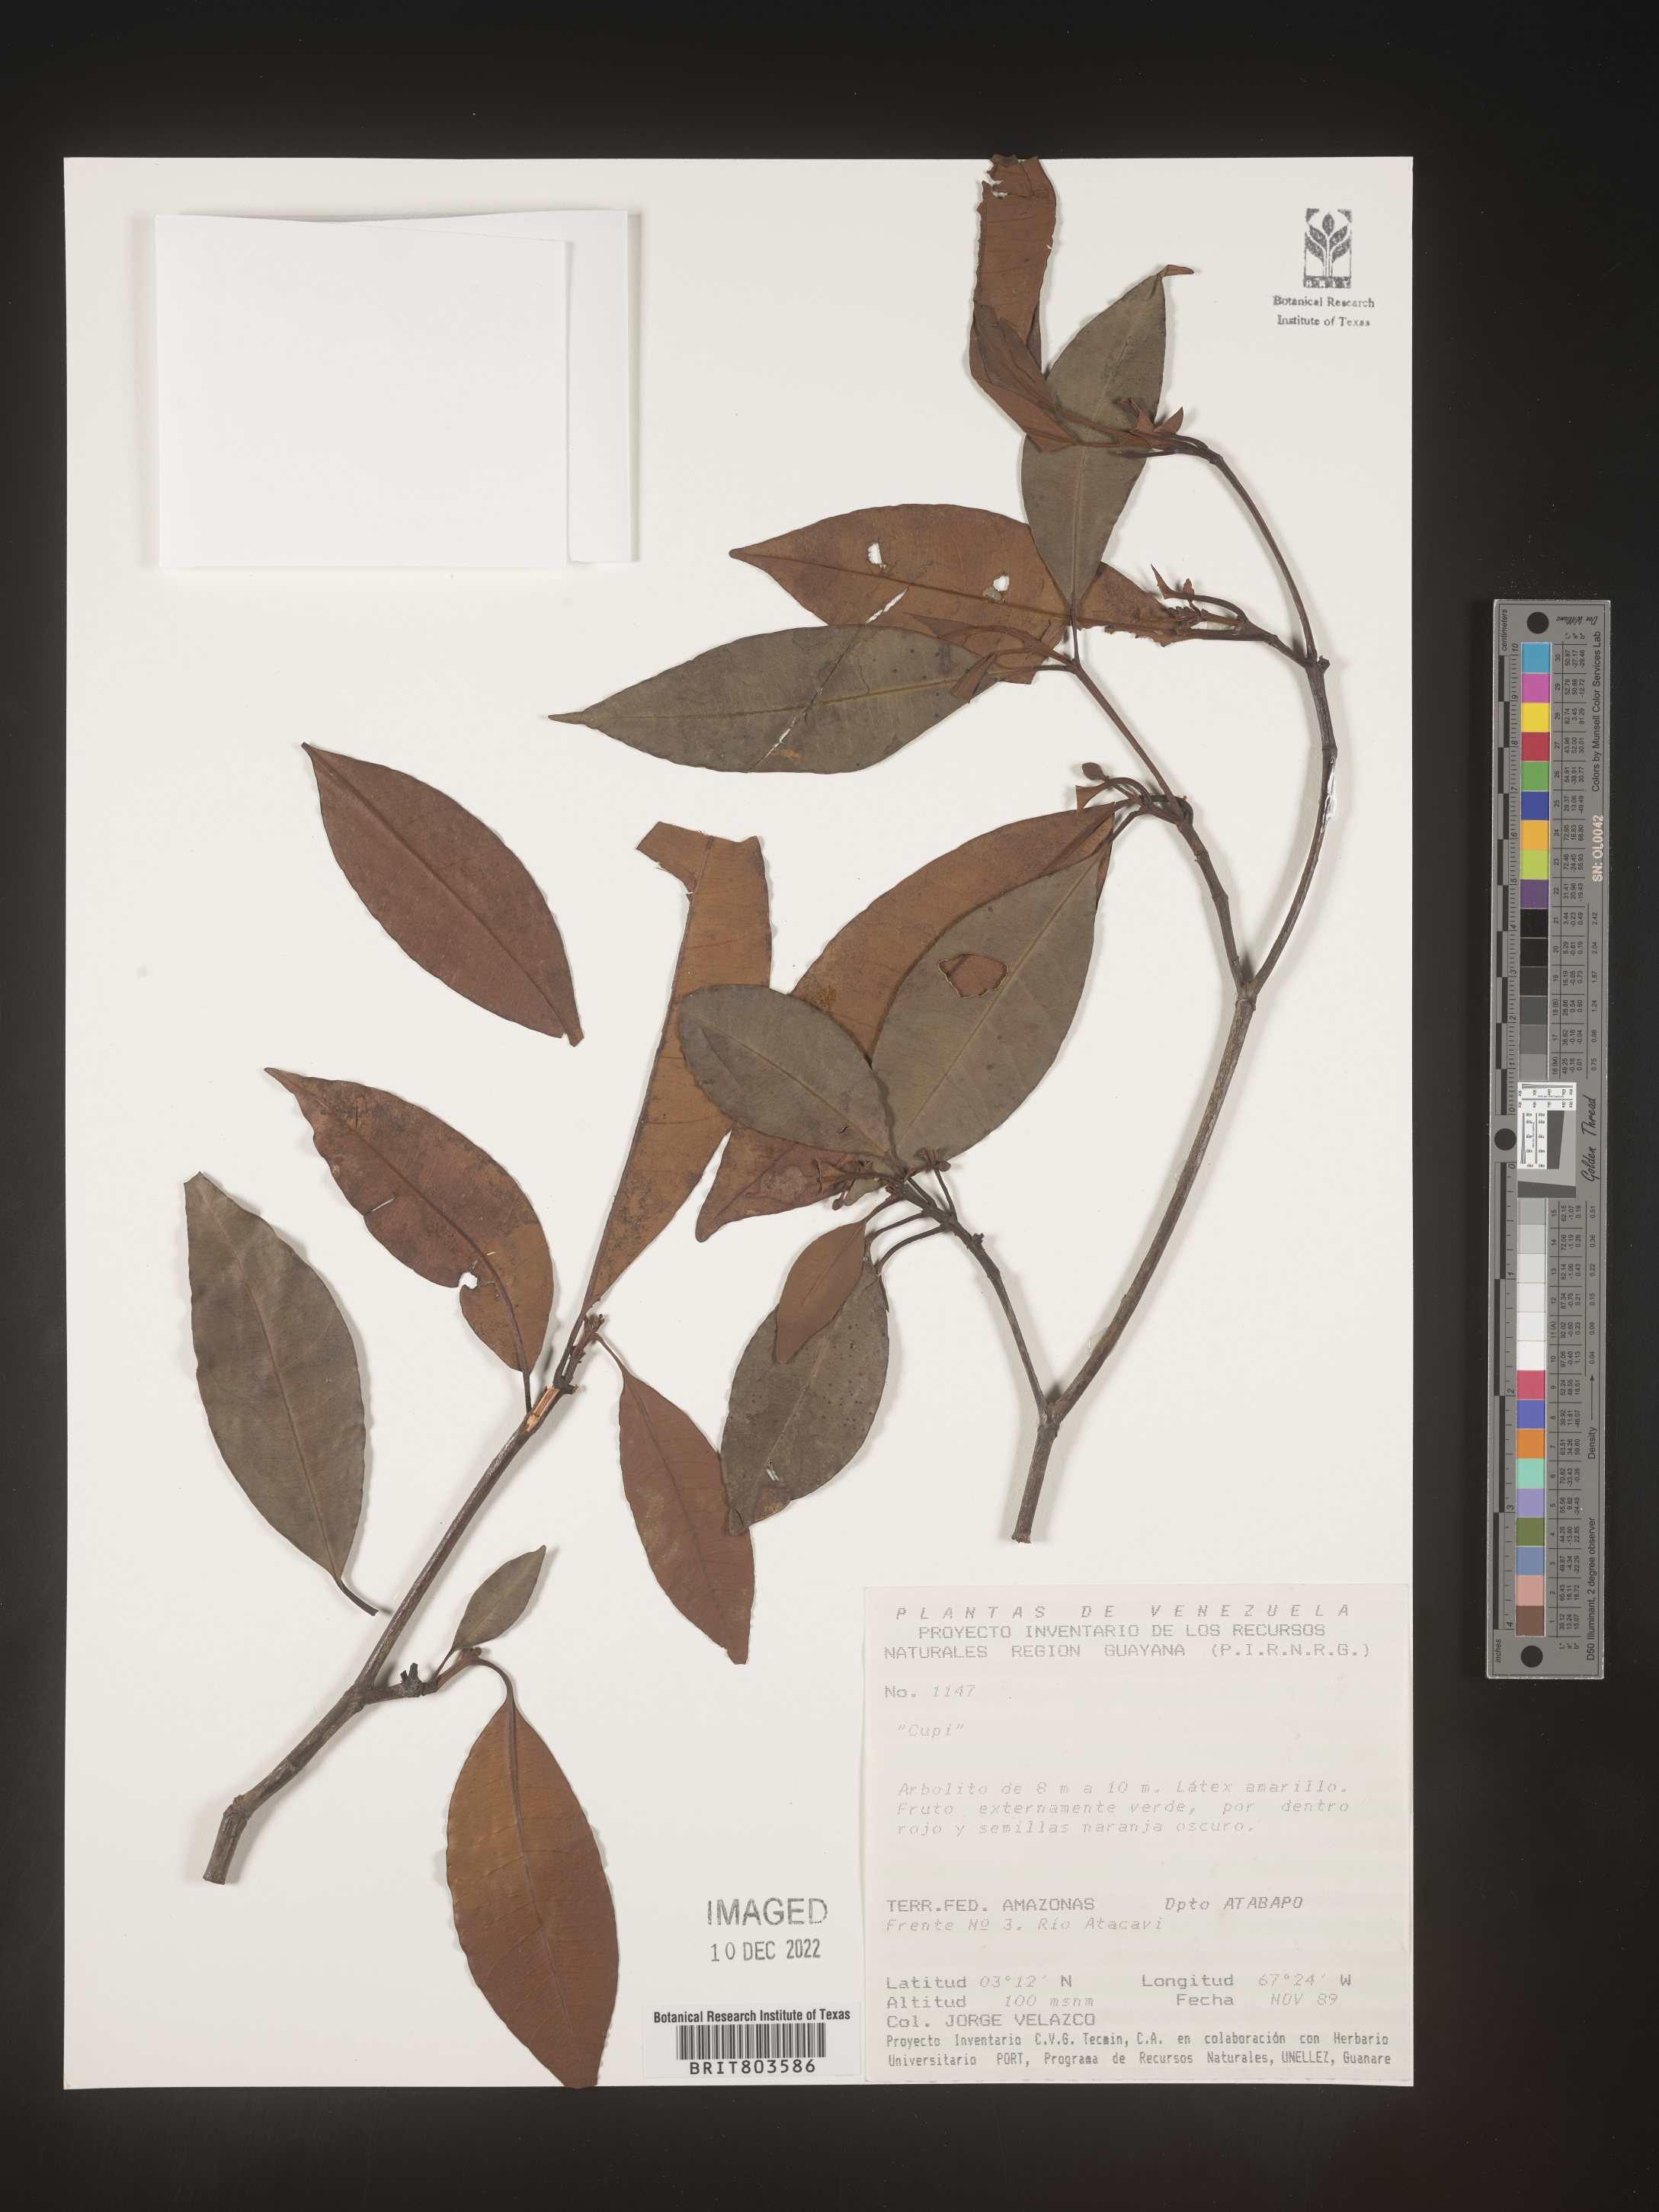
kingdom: Plantae
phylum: Tracheophyta
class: Magnoliopsida
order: Malpighiales
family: Clusiaceae
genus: Tovomita
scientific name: Tovomita
